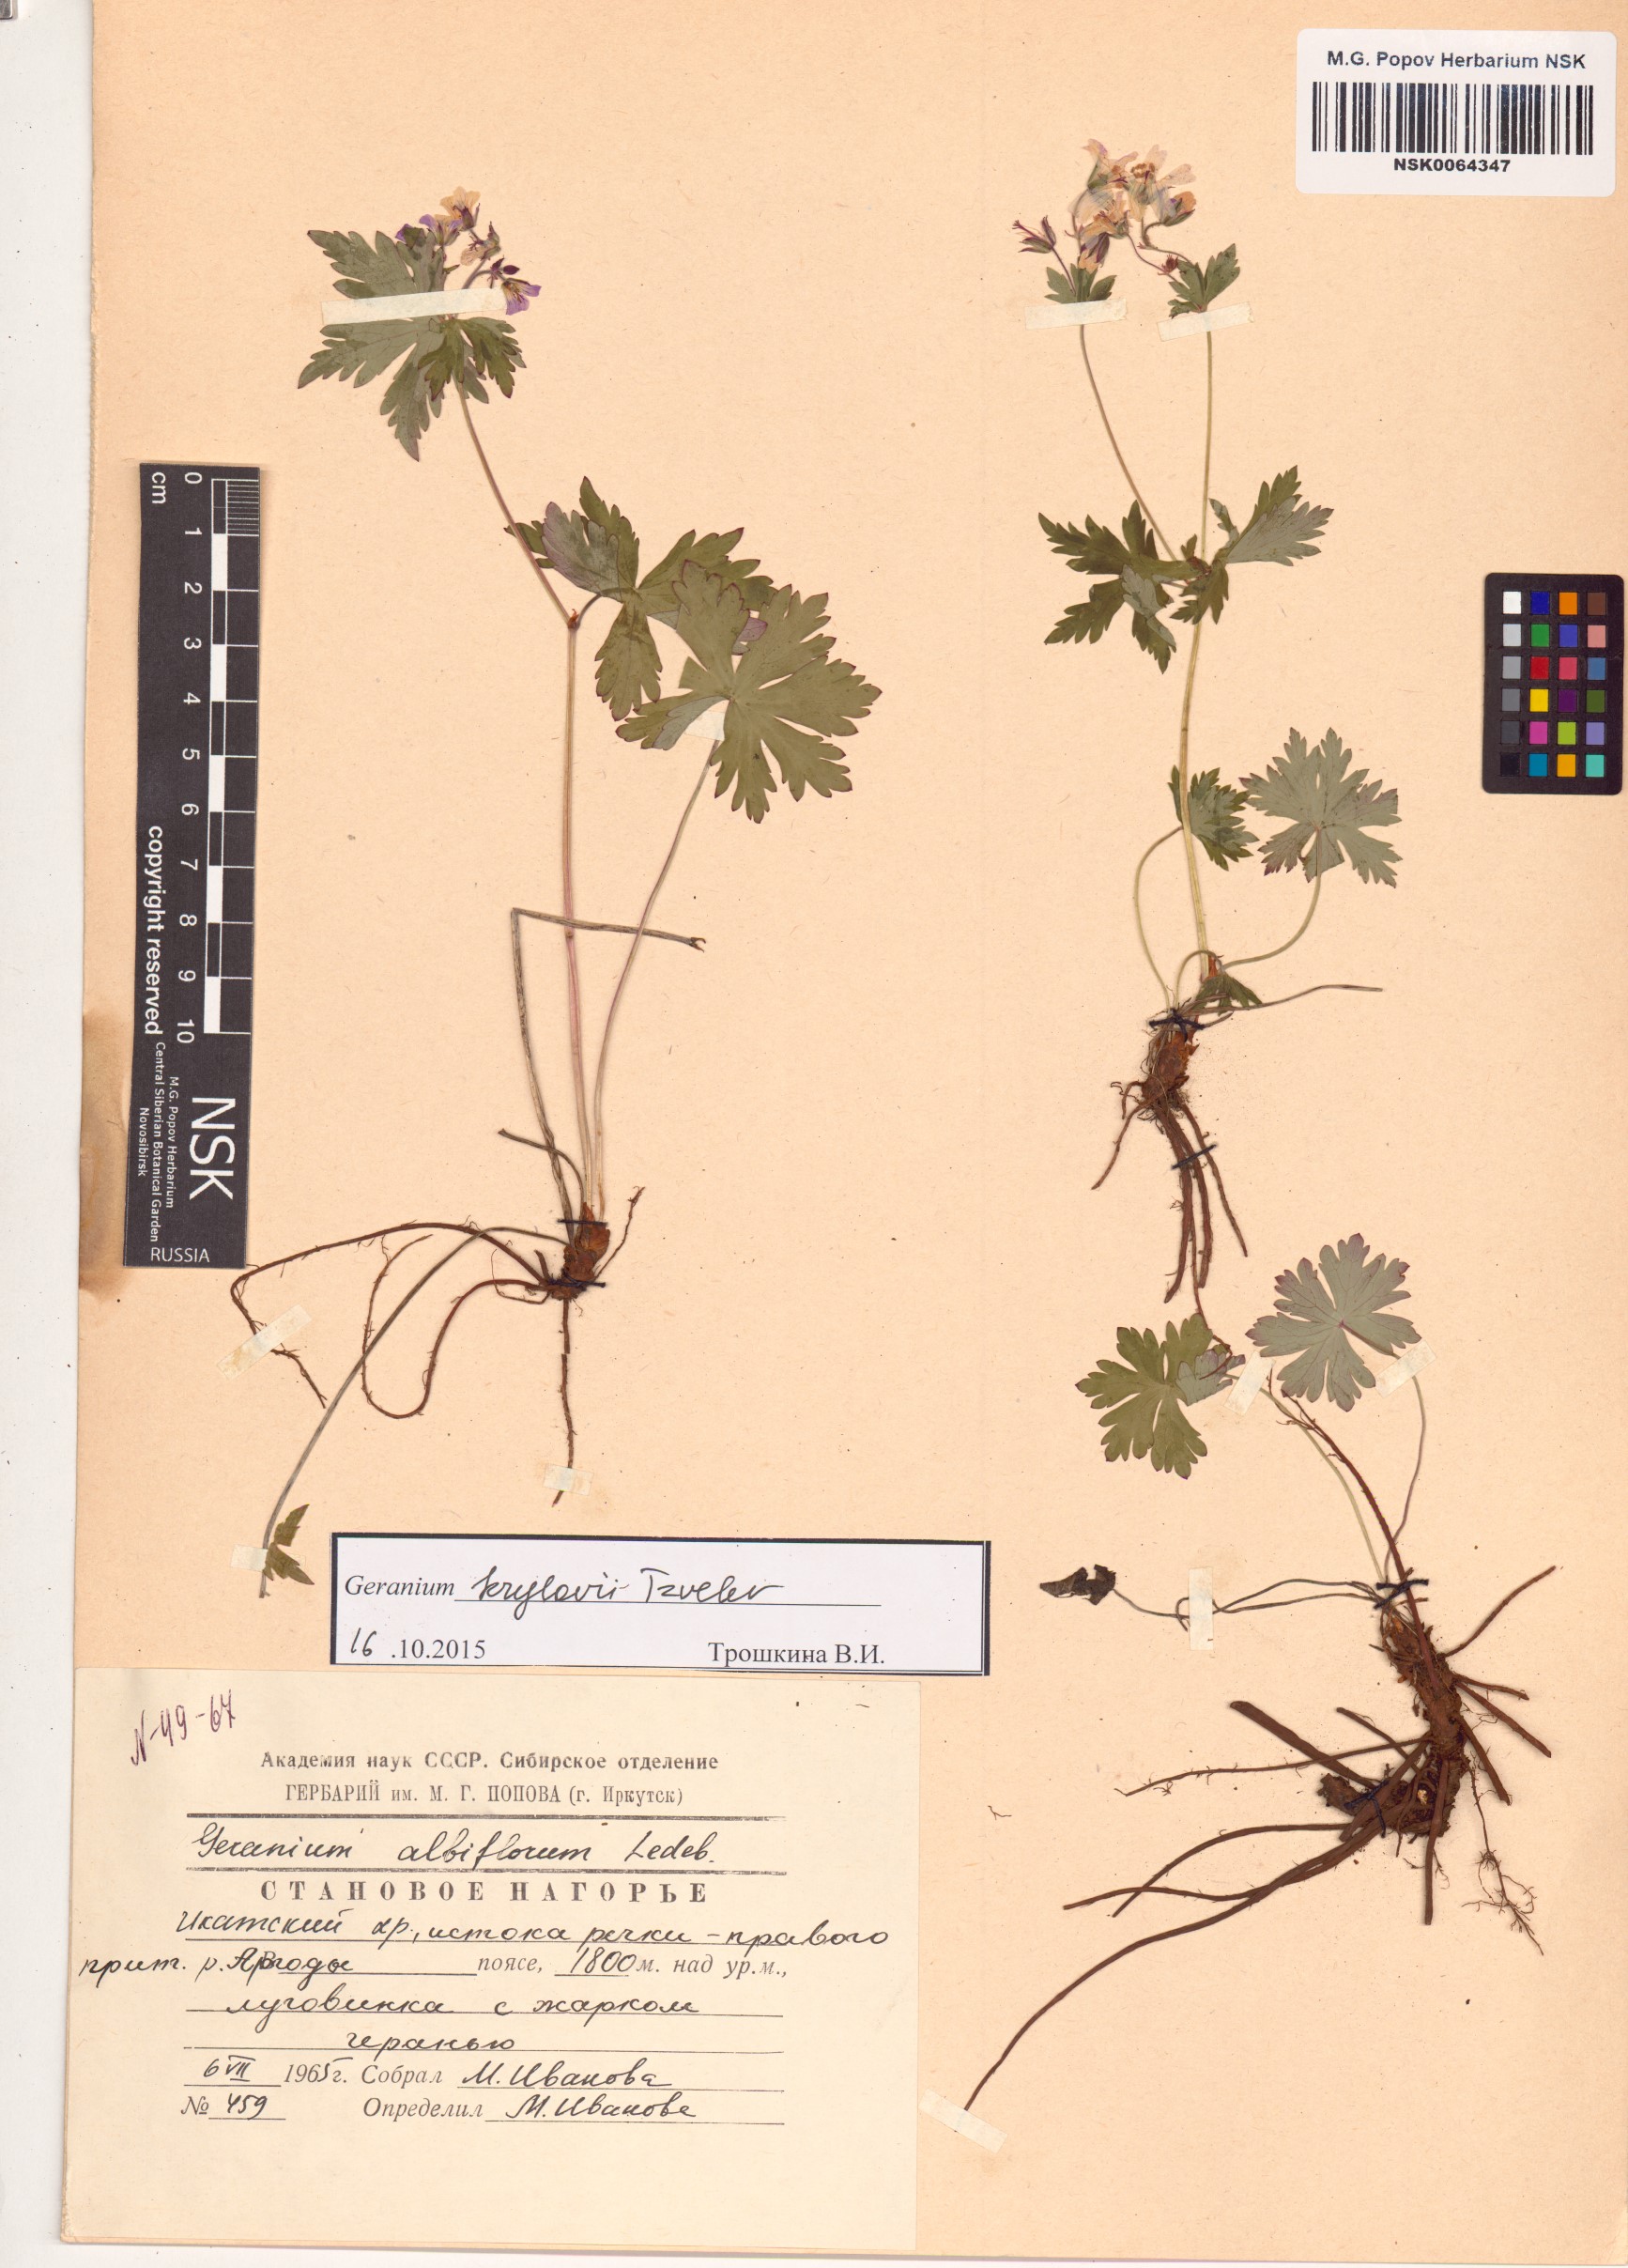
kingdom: Plantae
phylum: Tracheophyta
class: Magnoliopsida
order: Geraniales
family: Geraniaceae
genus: Geranium
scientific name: Geranium sylvaticum
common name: Wood crane's-bill
